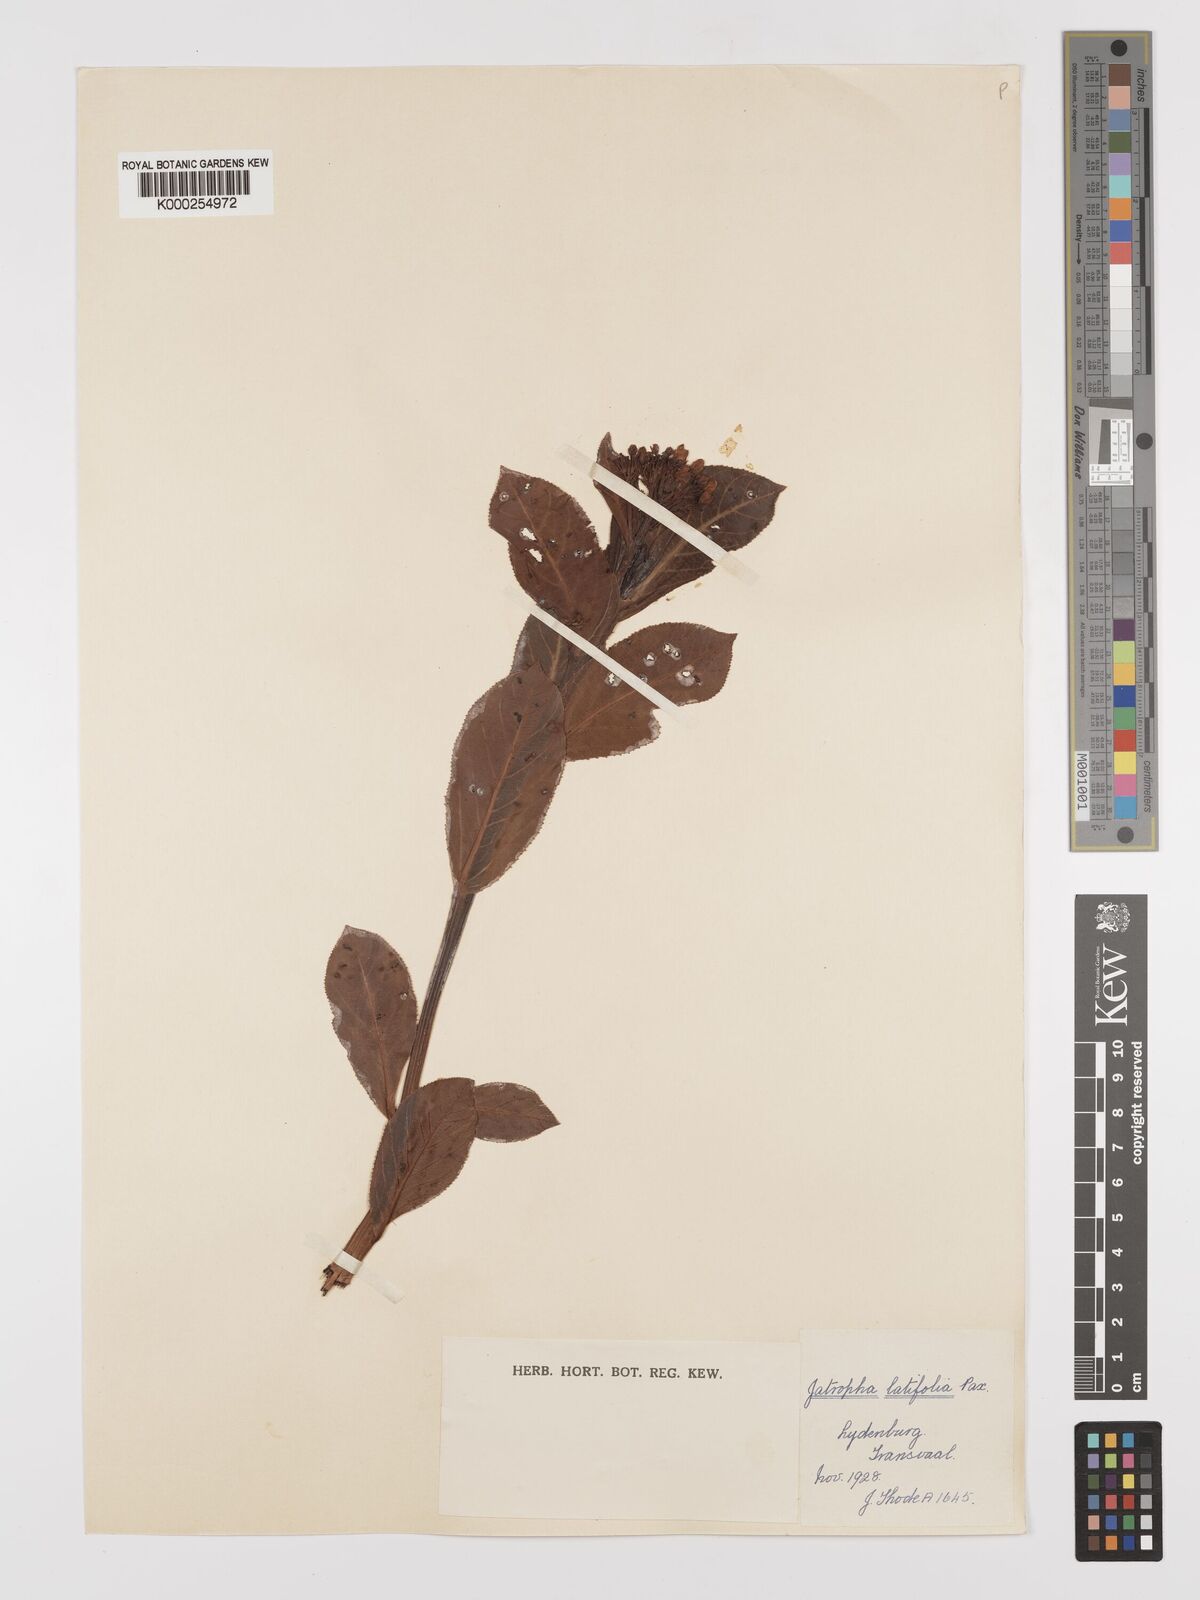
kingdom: Plantae
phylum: Tracheophyta
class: Magnoliopsida
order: Malpighiales
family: Euphorbiaceae
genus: Jatropha
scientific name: Jatropha latifolia
